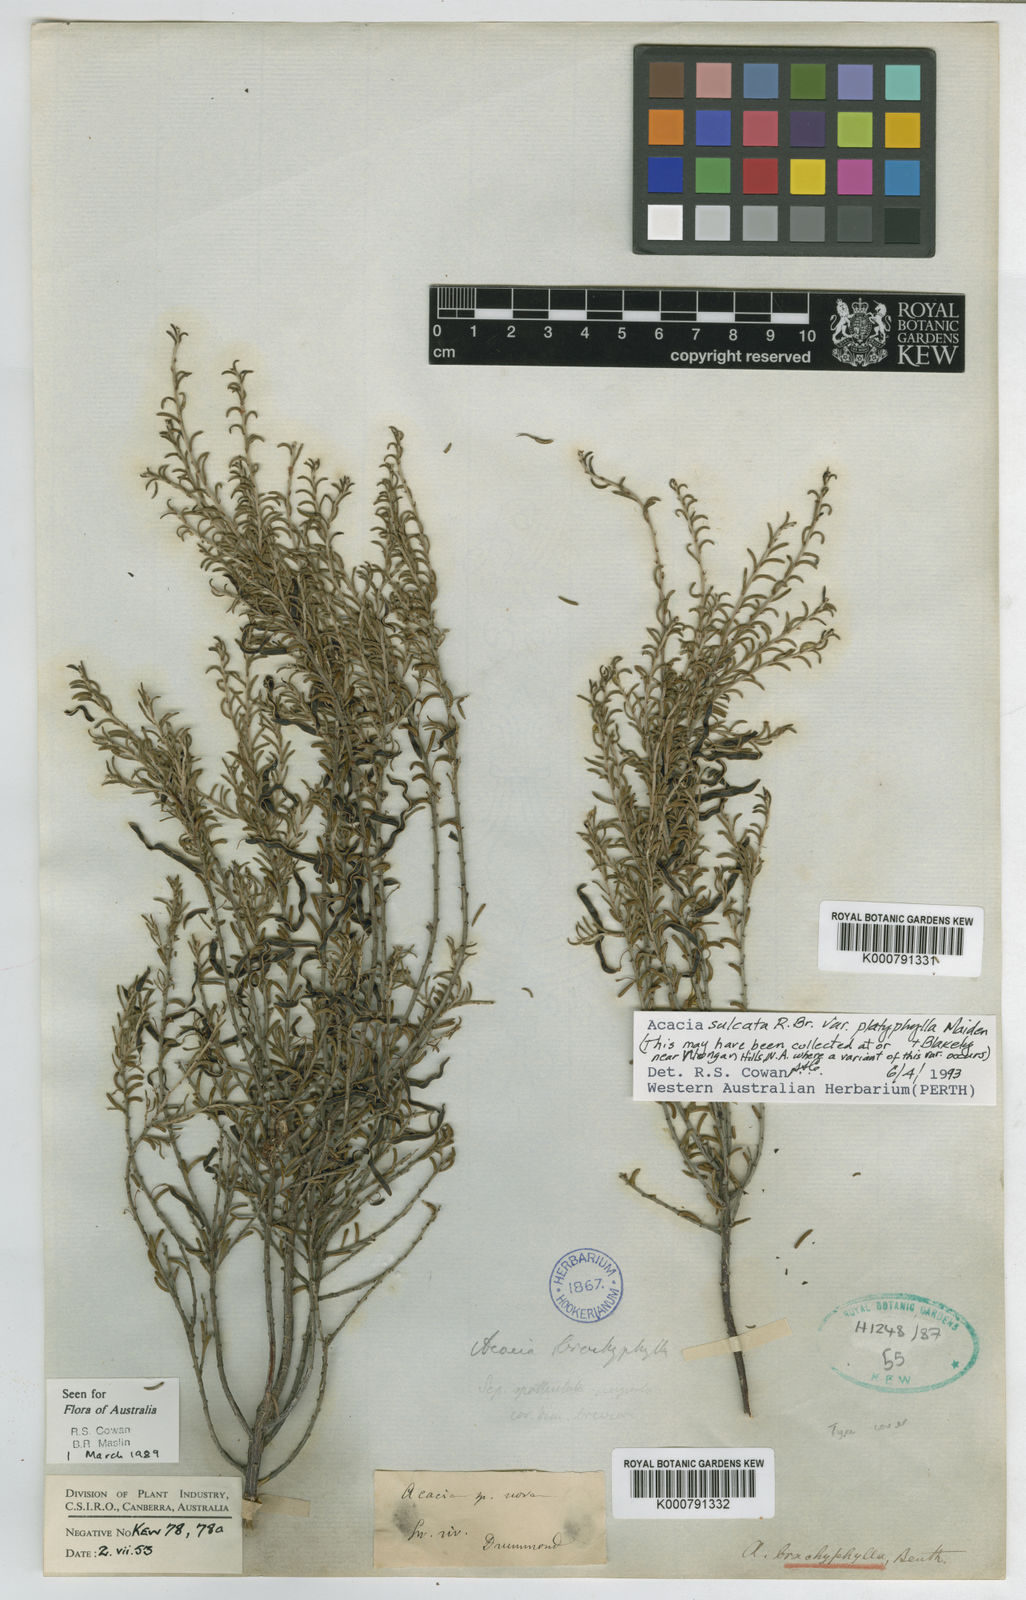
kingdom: Plantae
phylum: Tracheophyta
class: Magnoliopsida
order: Fabales
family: Fabaceae
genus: Acacia
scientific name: Acacia sulcata
